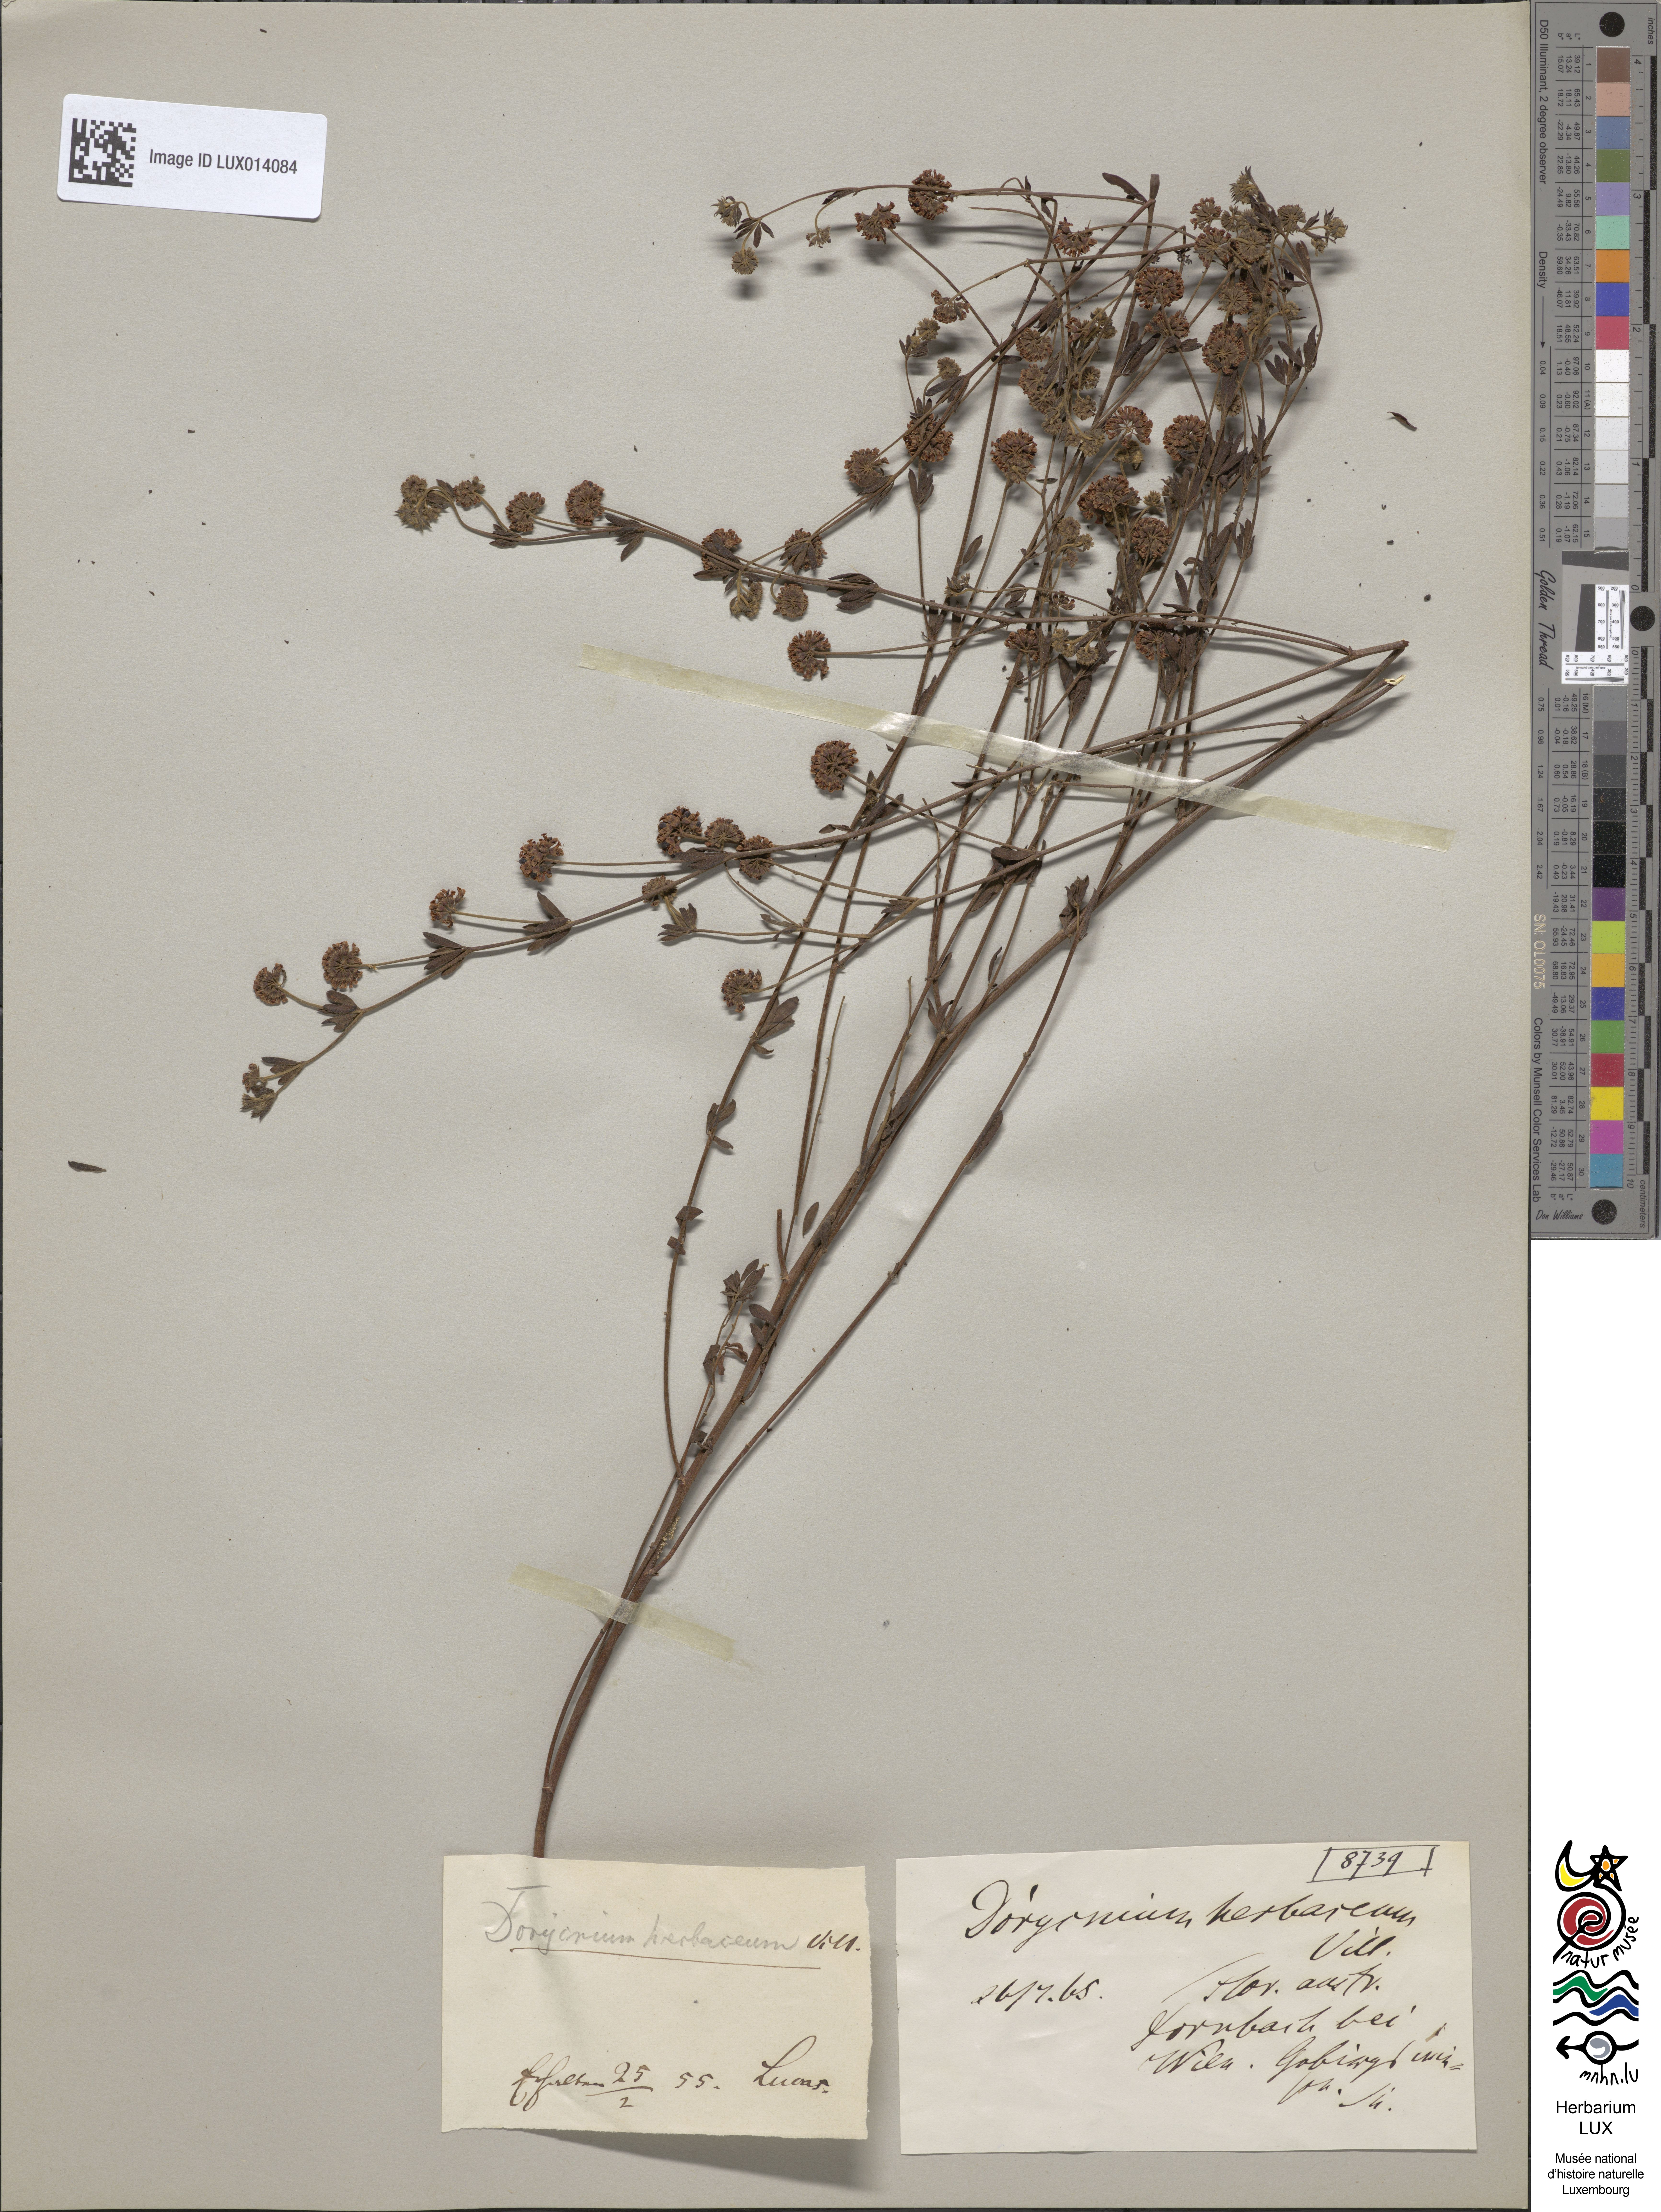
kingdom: Plantae
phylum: Tracheophyta
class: Magnoliopsida
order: Fabales
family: Fabaceae
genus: Lotus
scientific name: Lotus herbaceus
